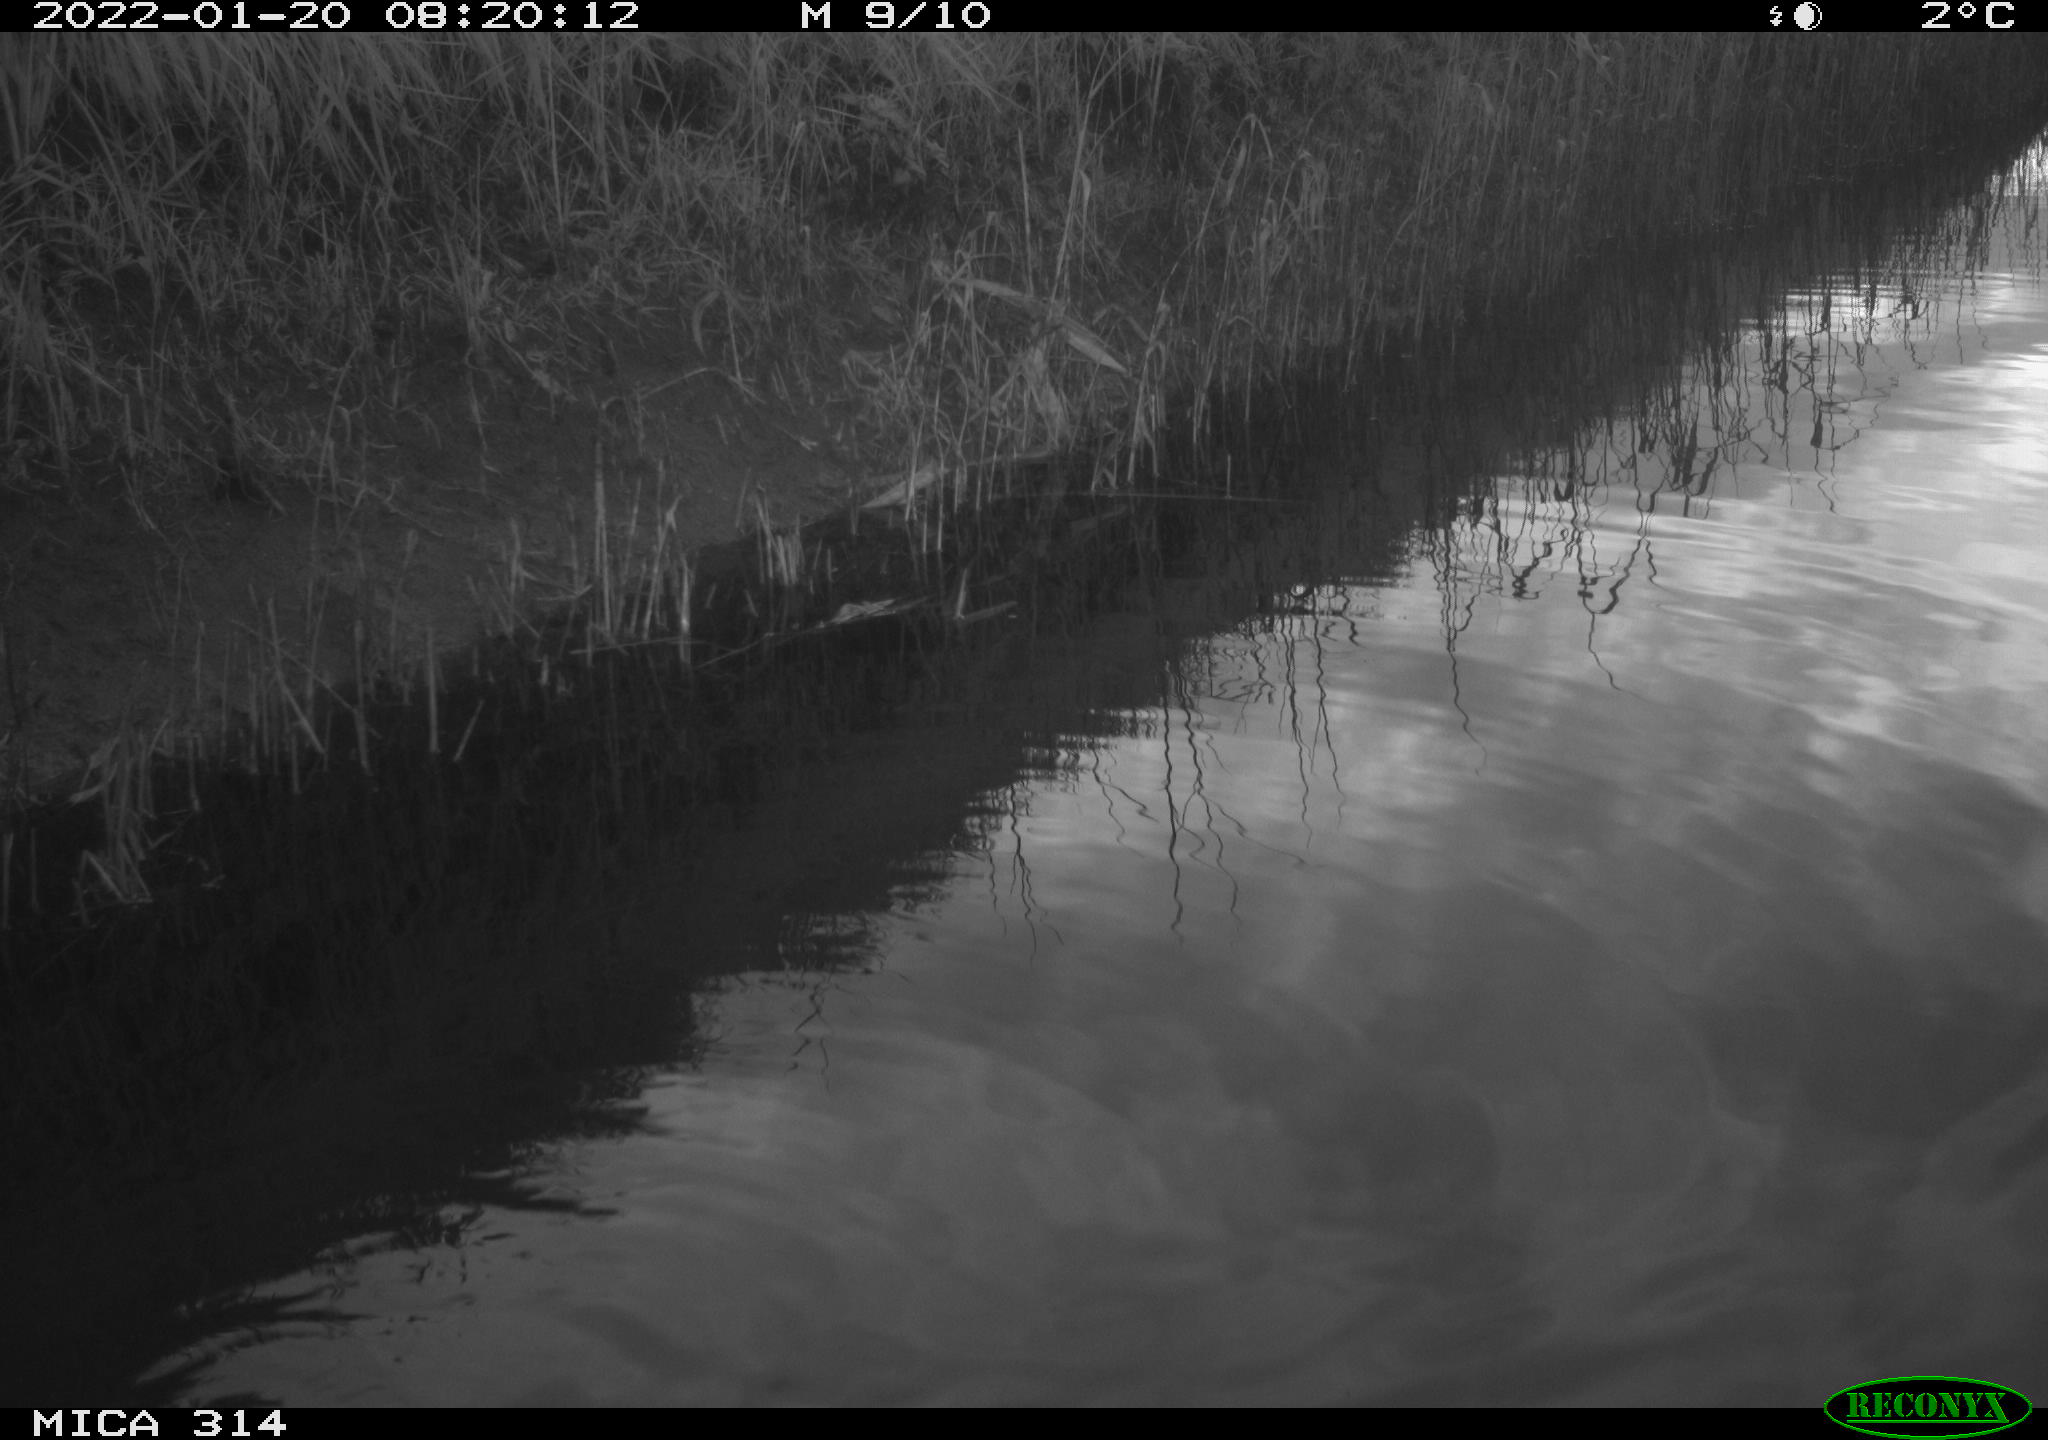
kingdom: Animalia
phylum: Chordata
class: Aves
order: Gruiformes
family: Rallidae
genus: Gallinula
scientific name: Gallinula chloropus
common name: Common moorhen
